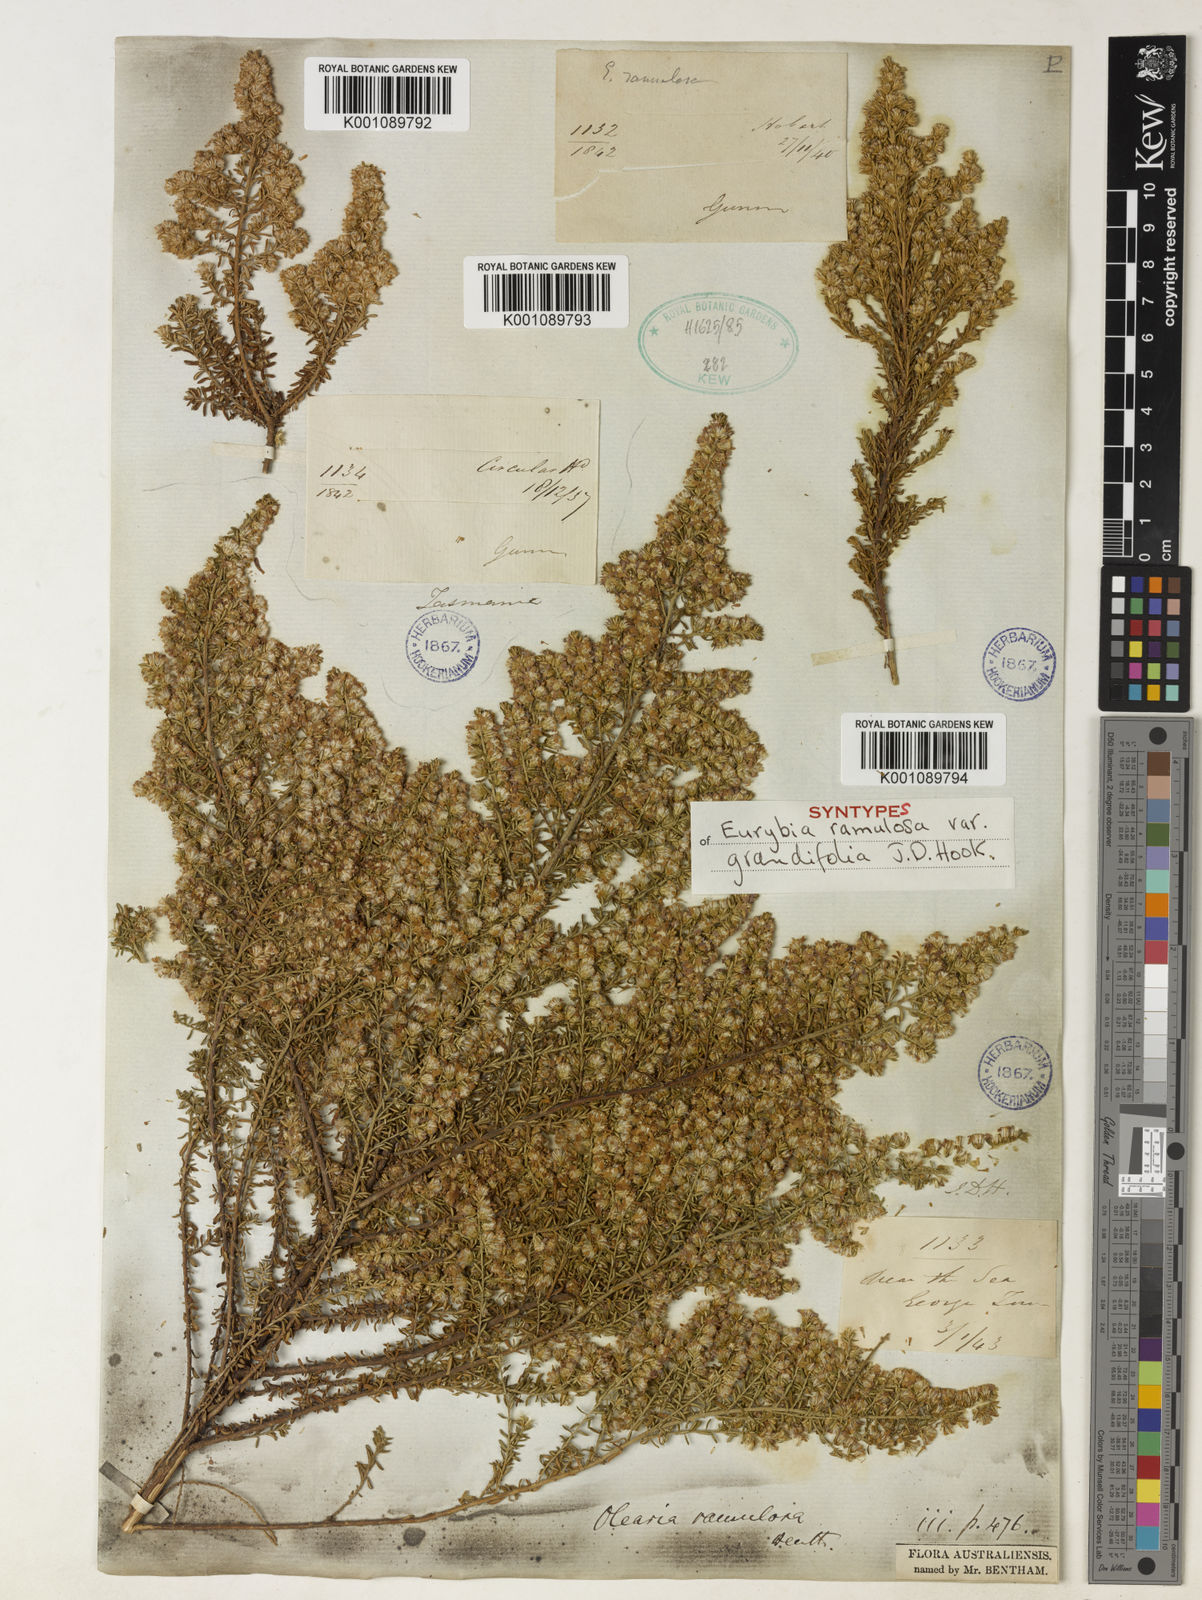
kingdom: Plantae
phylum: Tracheophyta
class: Magnoliopsida
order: Asterales
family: Asteraceae
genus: Olearia
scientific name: Olearia ramulosa
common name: Twiggy daisybush
